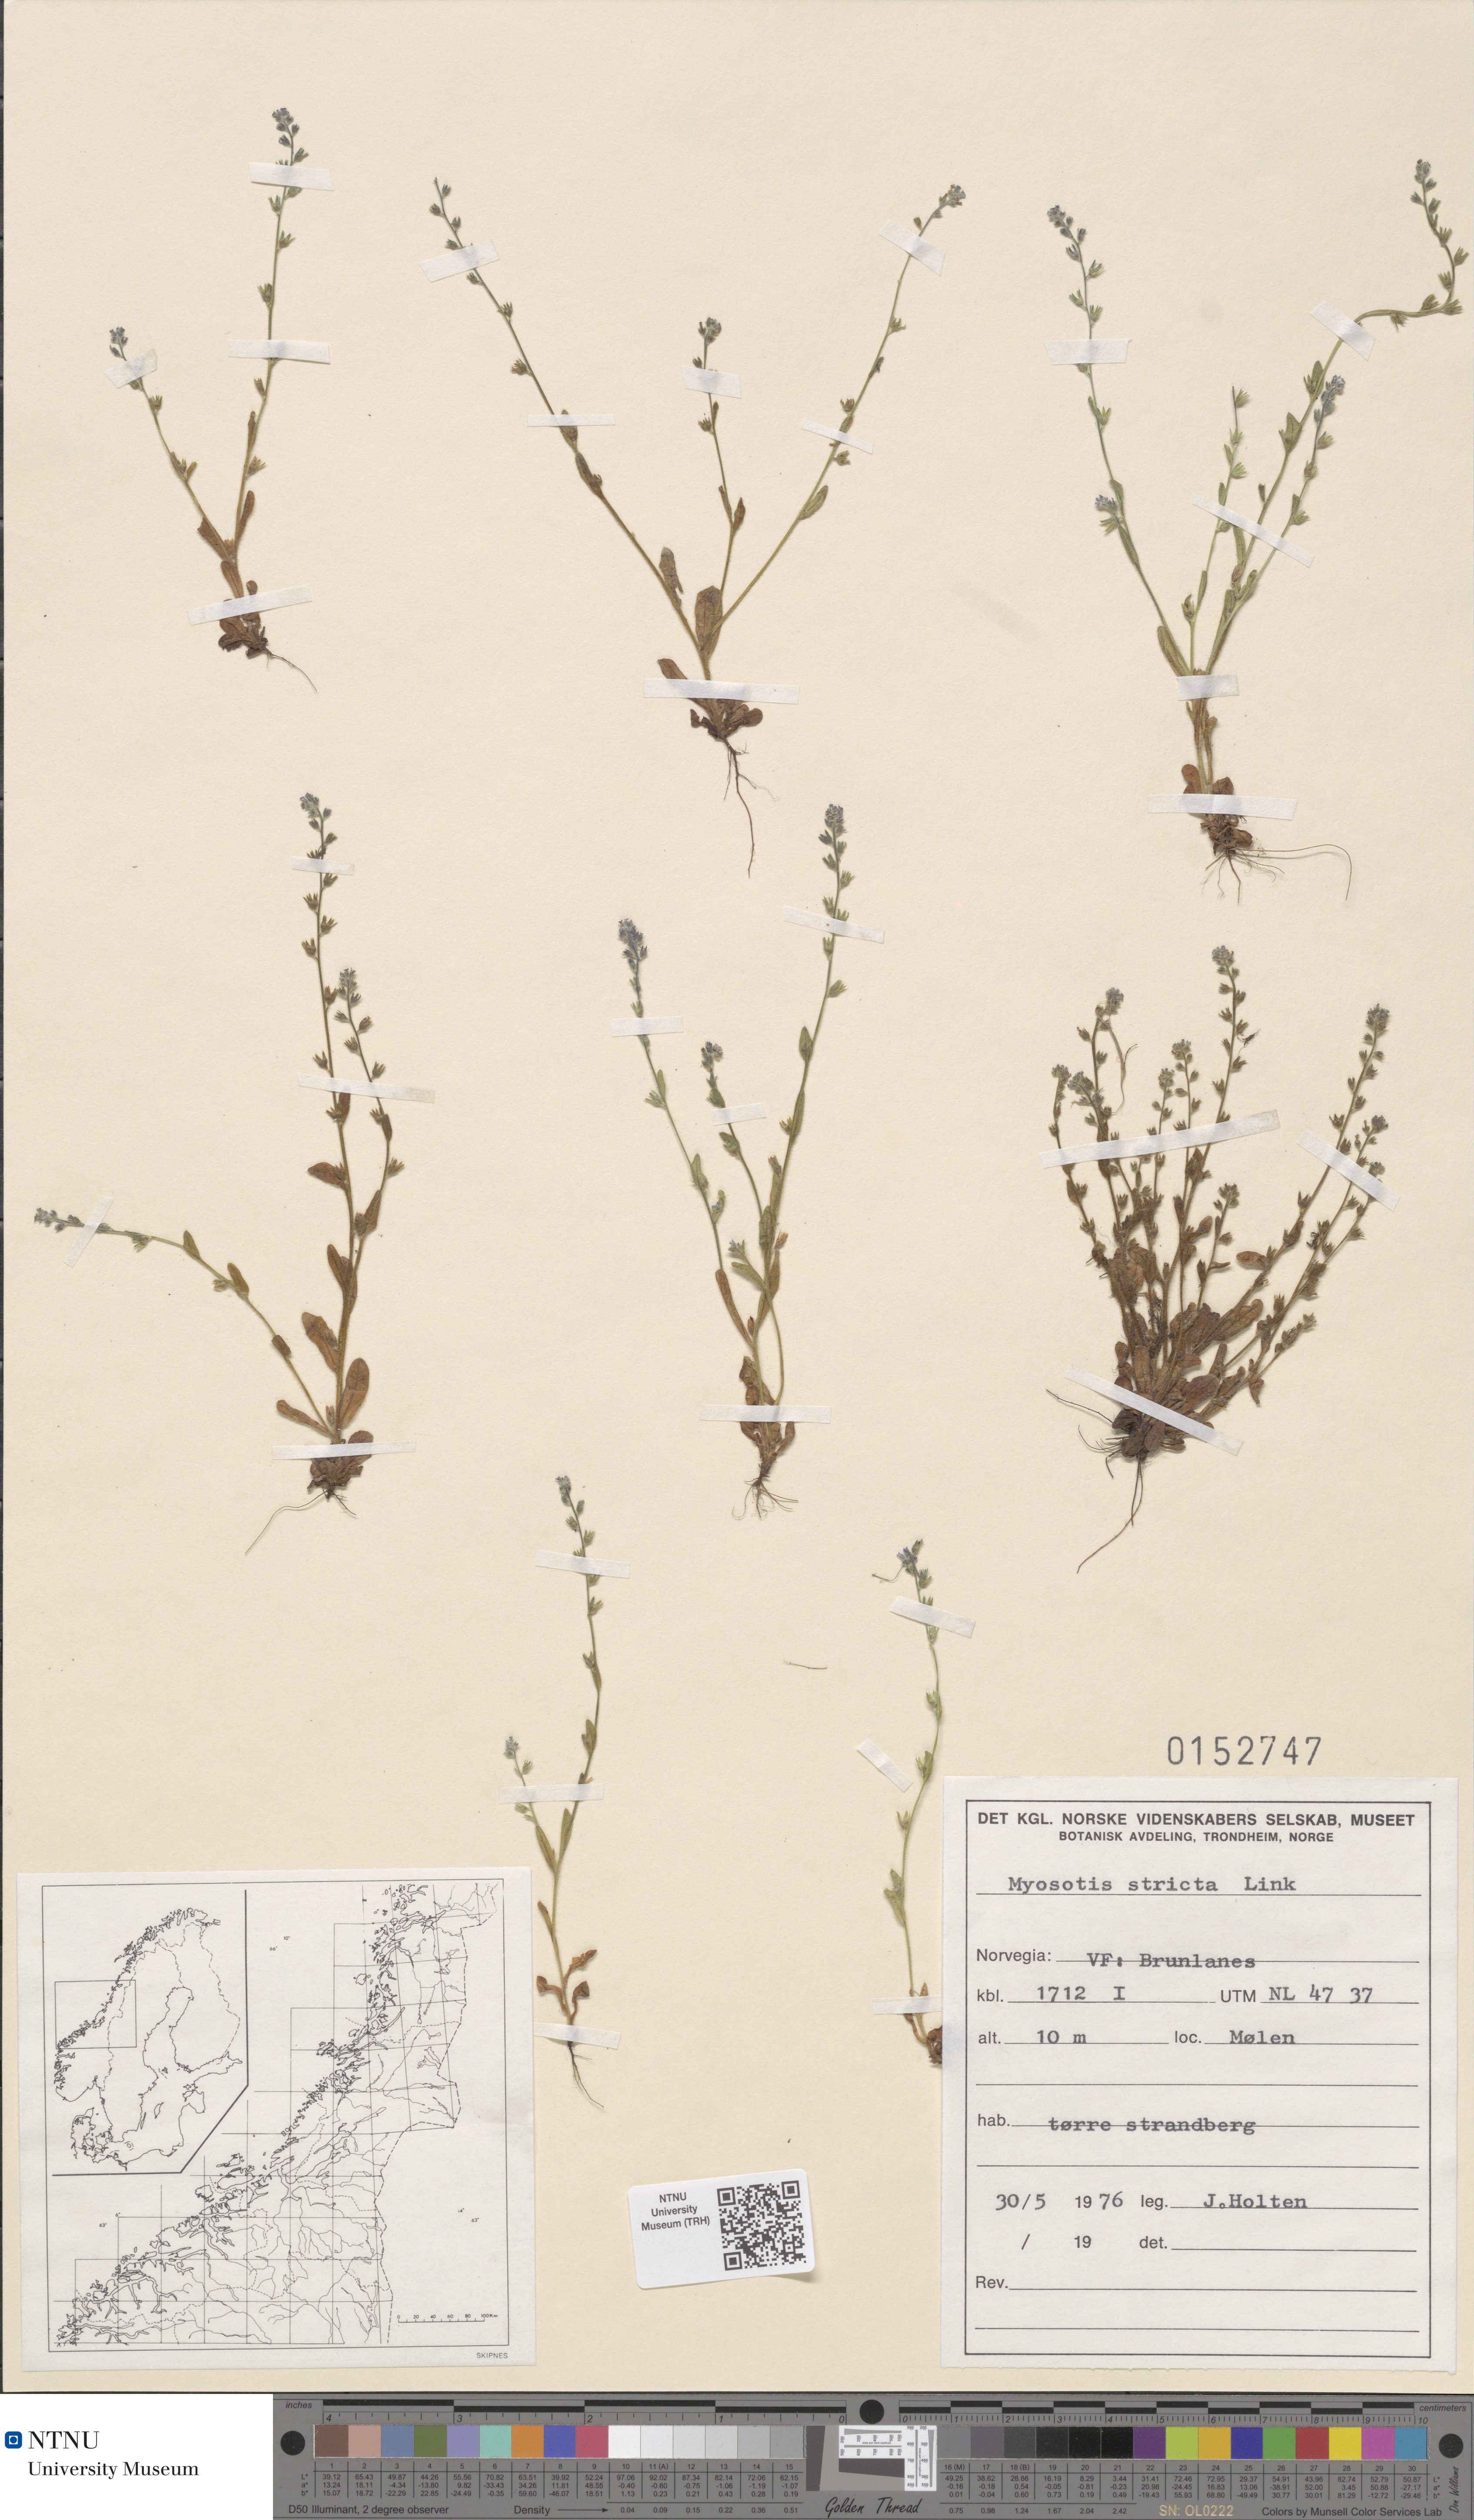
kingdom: Plantae
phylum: Tracheophyta
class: Magnoliopsida
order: Boraginales
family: Boraginaceae
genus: Myosotis
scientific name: Myosotis stricta
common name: Strict forget-me-not
